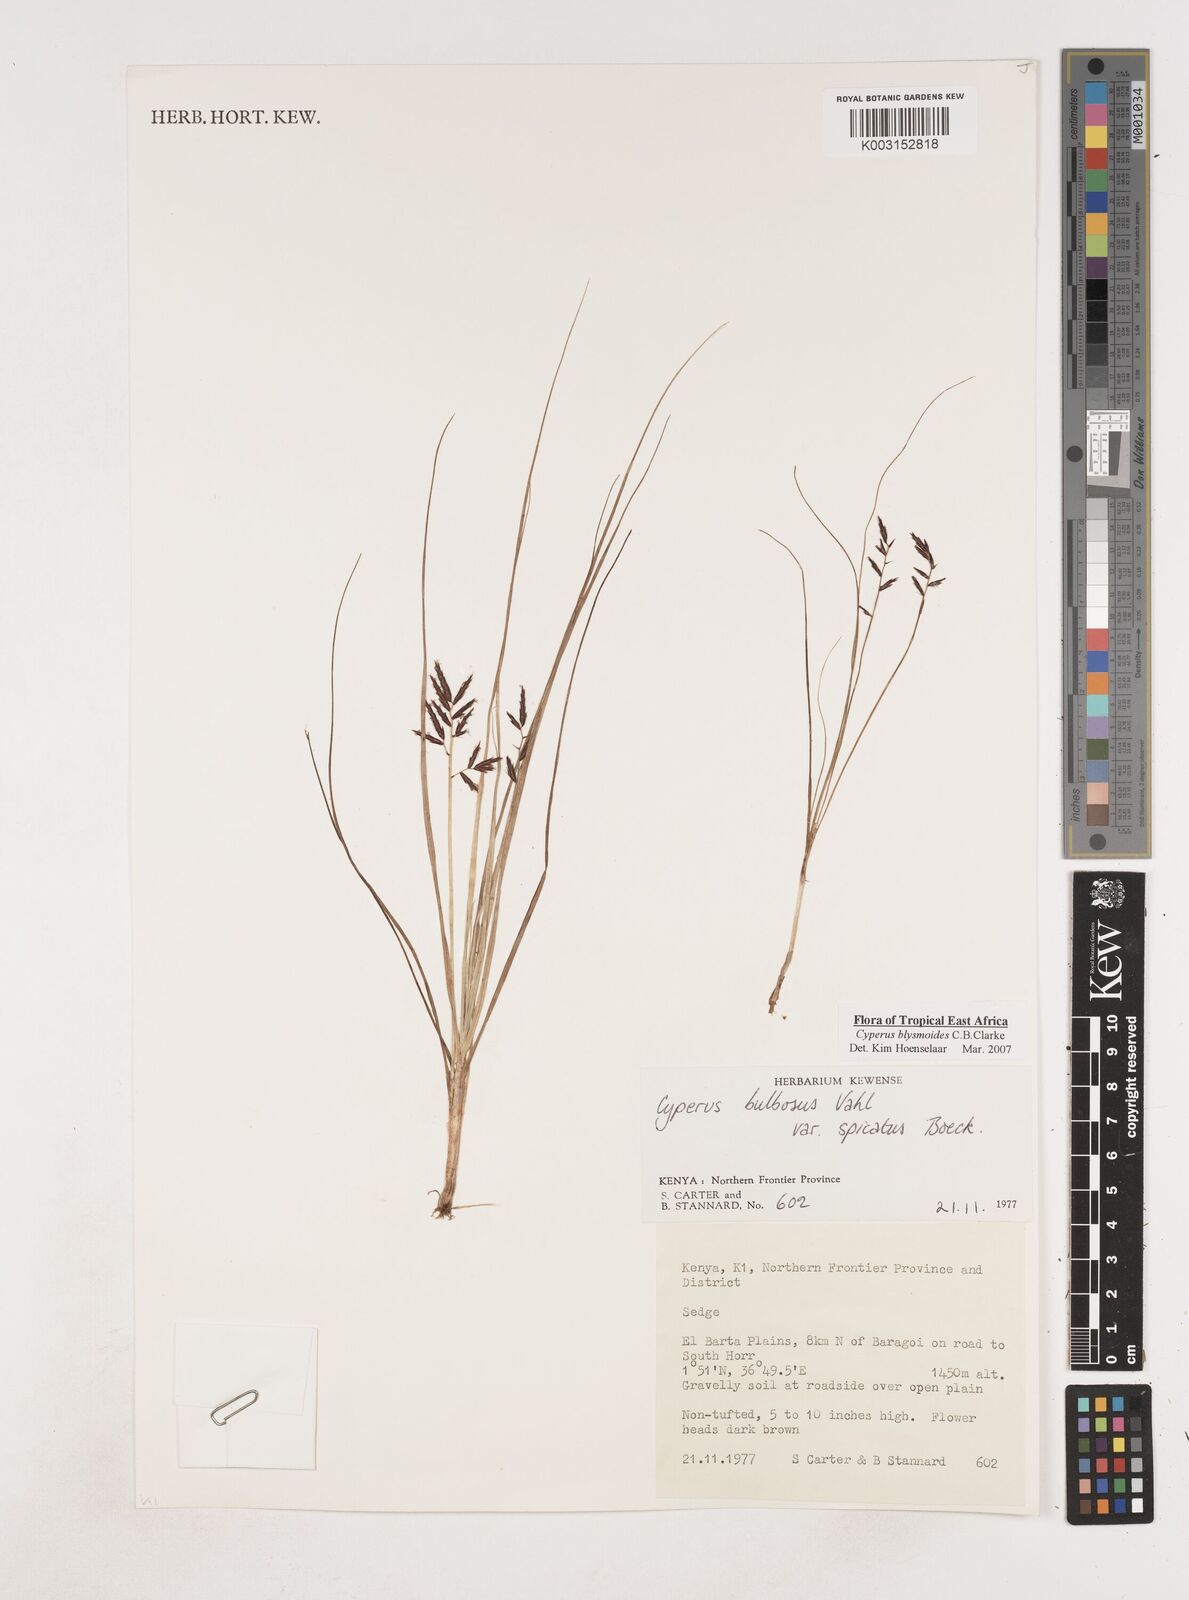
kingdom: Plantae
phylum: Tracheophyta
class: Liliopsida
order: Poales
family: Cyperaceae
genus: Cyperus
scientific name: Cyperus blysmoides
